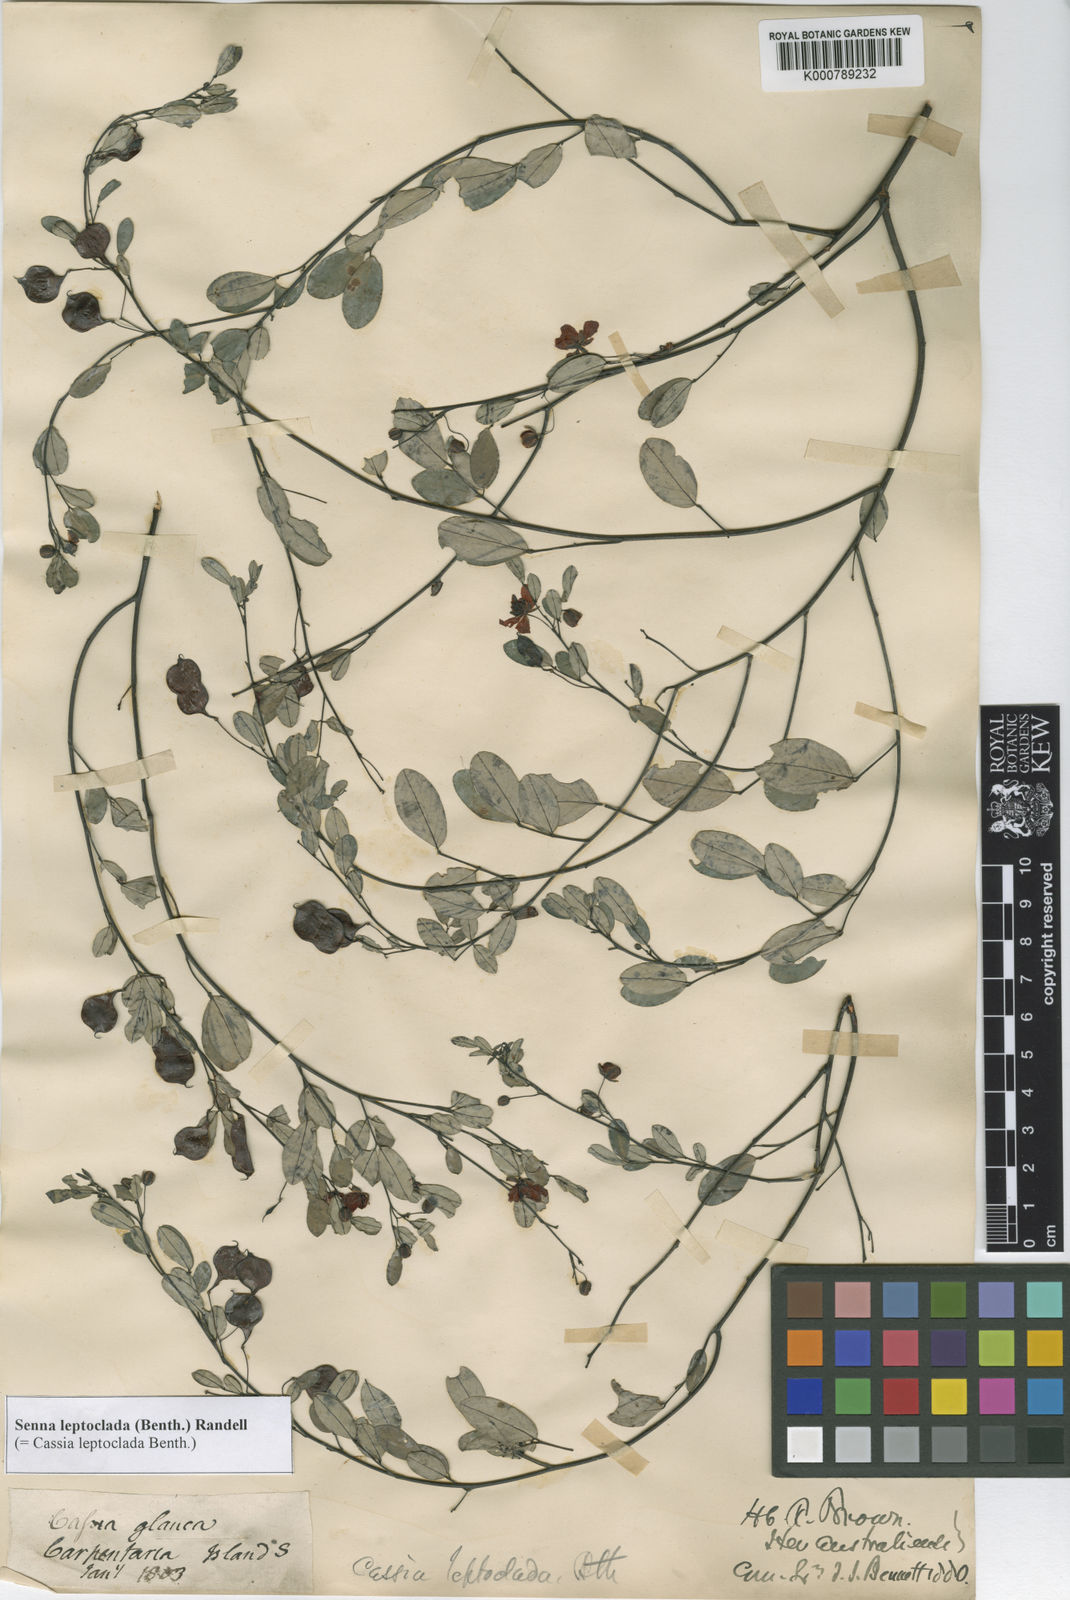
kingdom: Plantae
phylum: Tracheophyta
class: Magnoliopsida
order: Fabales
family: Fabaceae
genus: Senna
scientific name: Senna leptoclada
